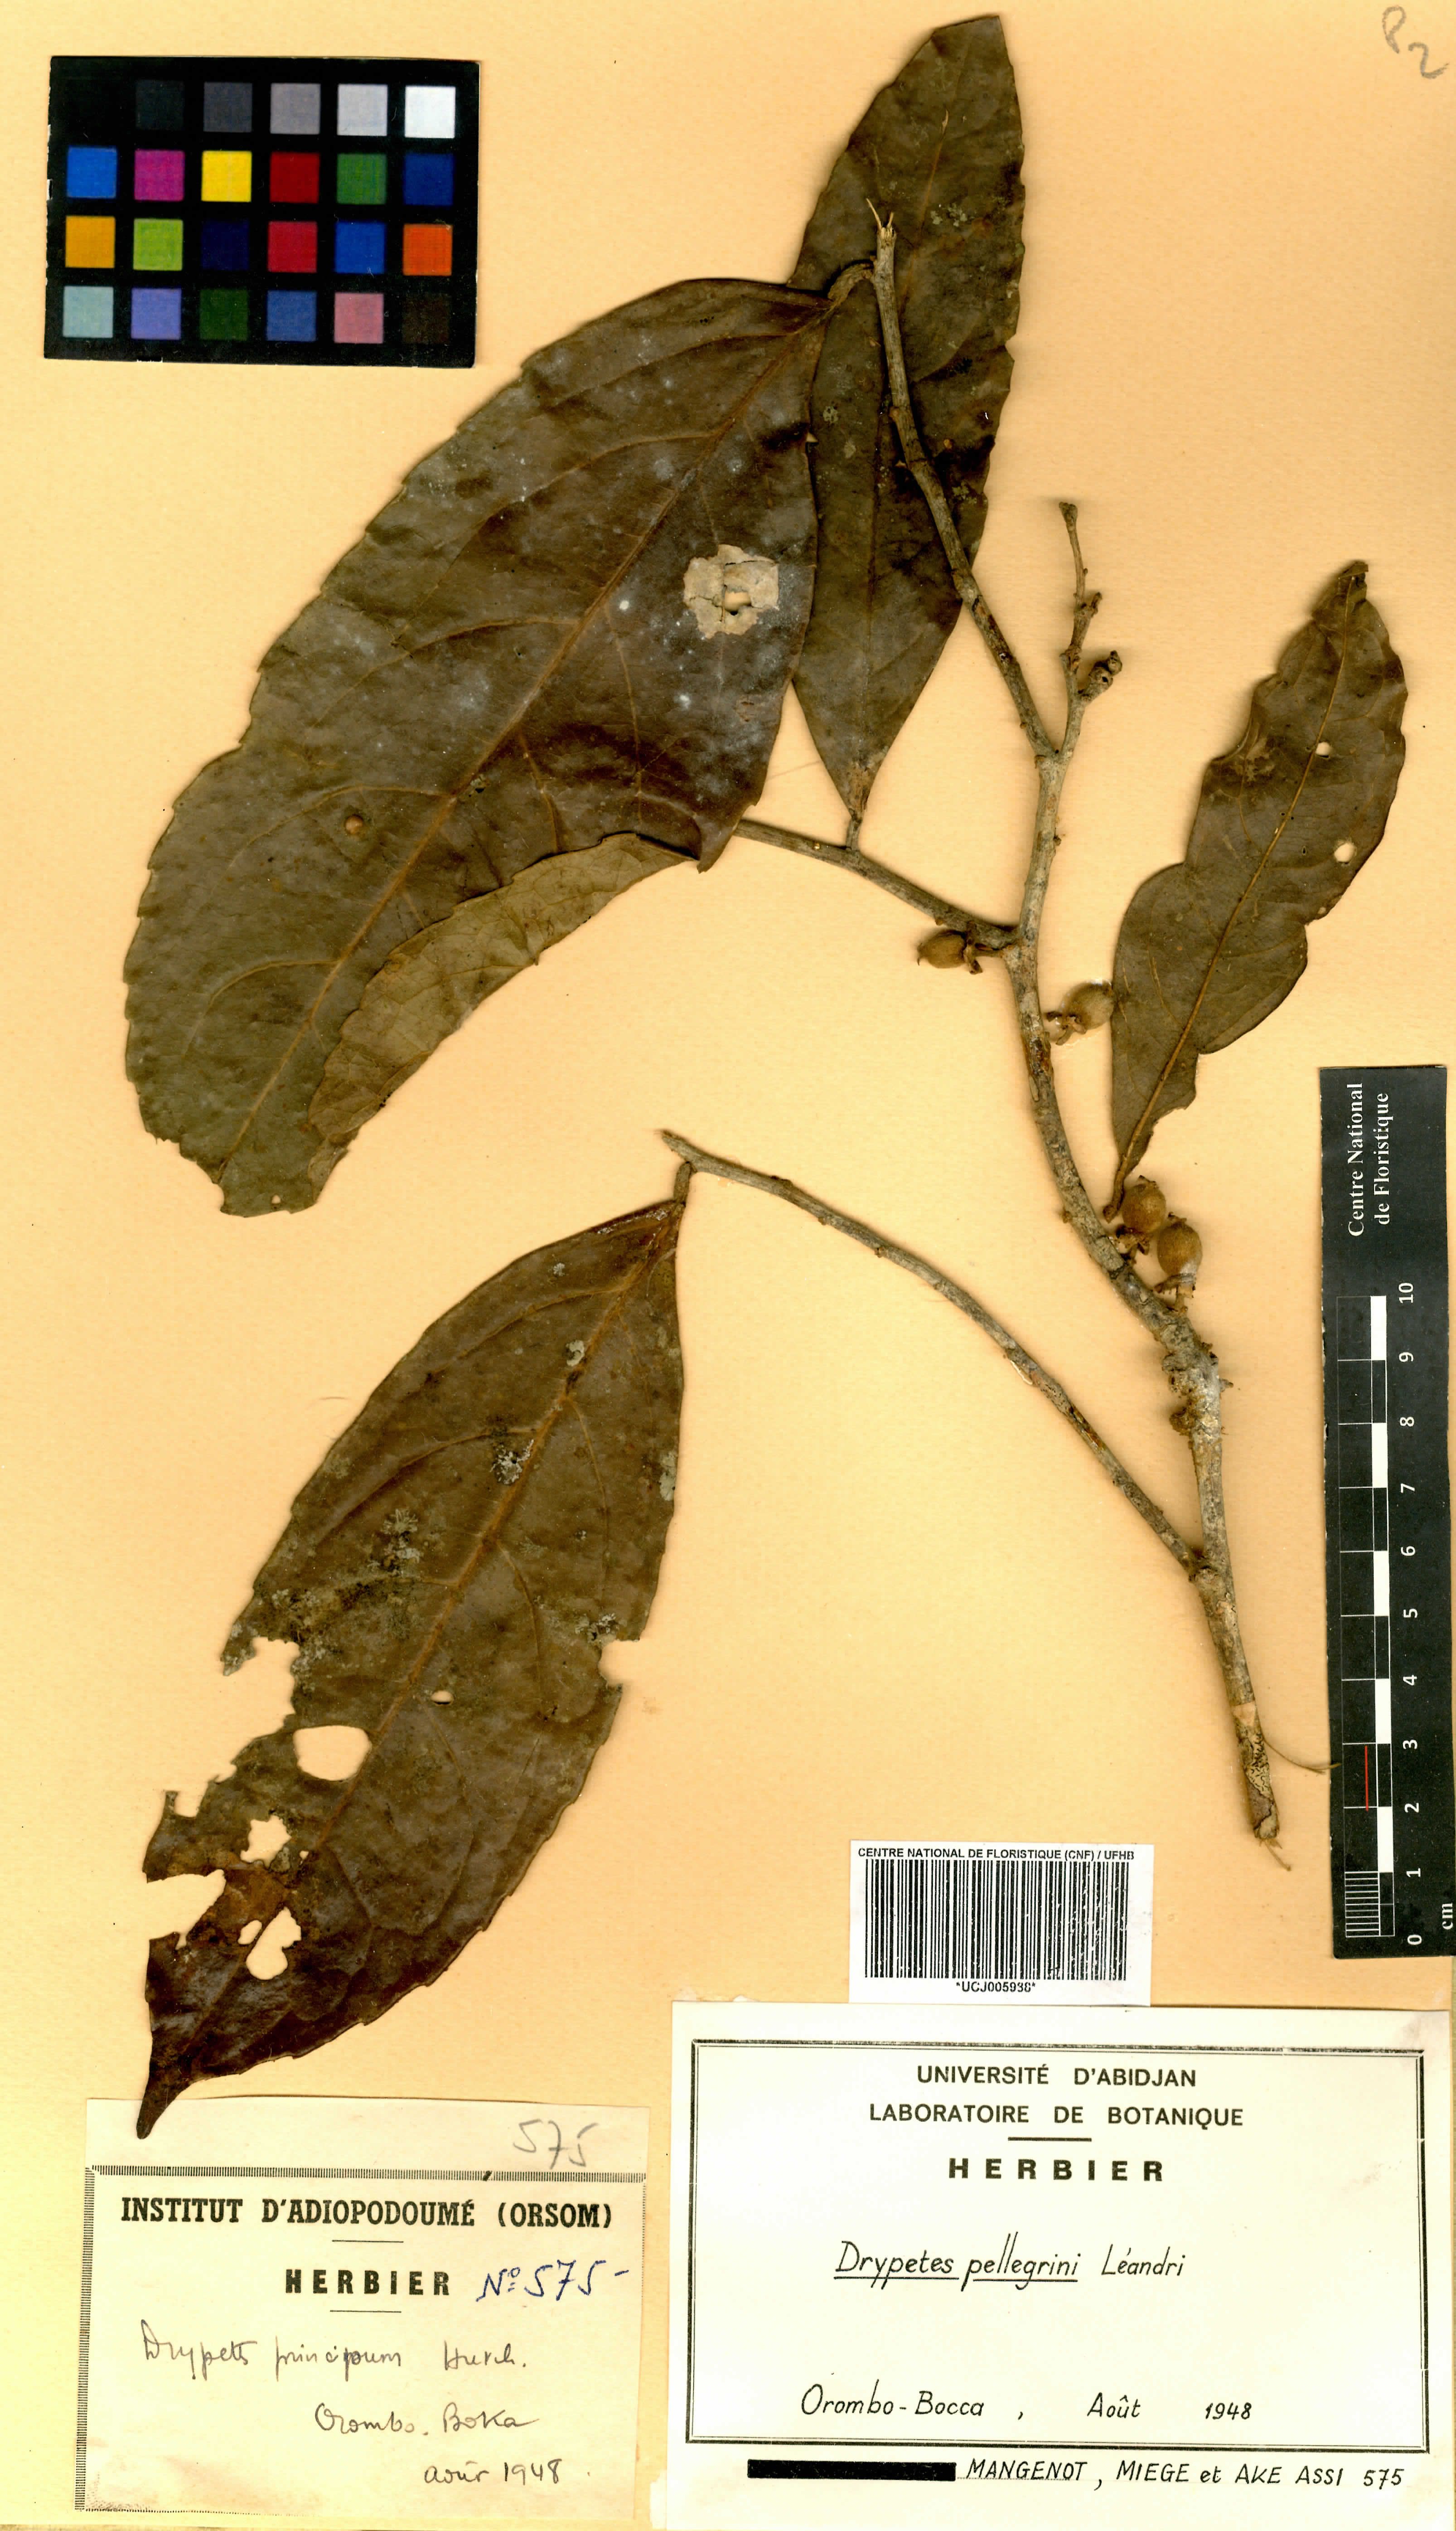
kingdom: Plantae
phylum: Tracheophyta
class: Magnoliopsida
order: Malpighiales
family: Putranjivaceae
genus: Drypetes
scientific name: Drypetes pellegrinii
